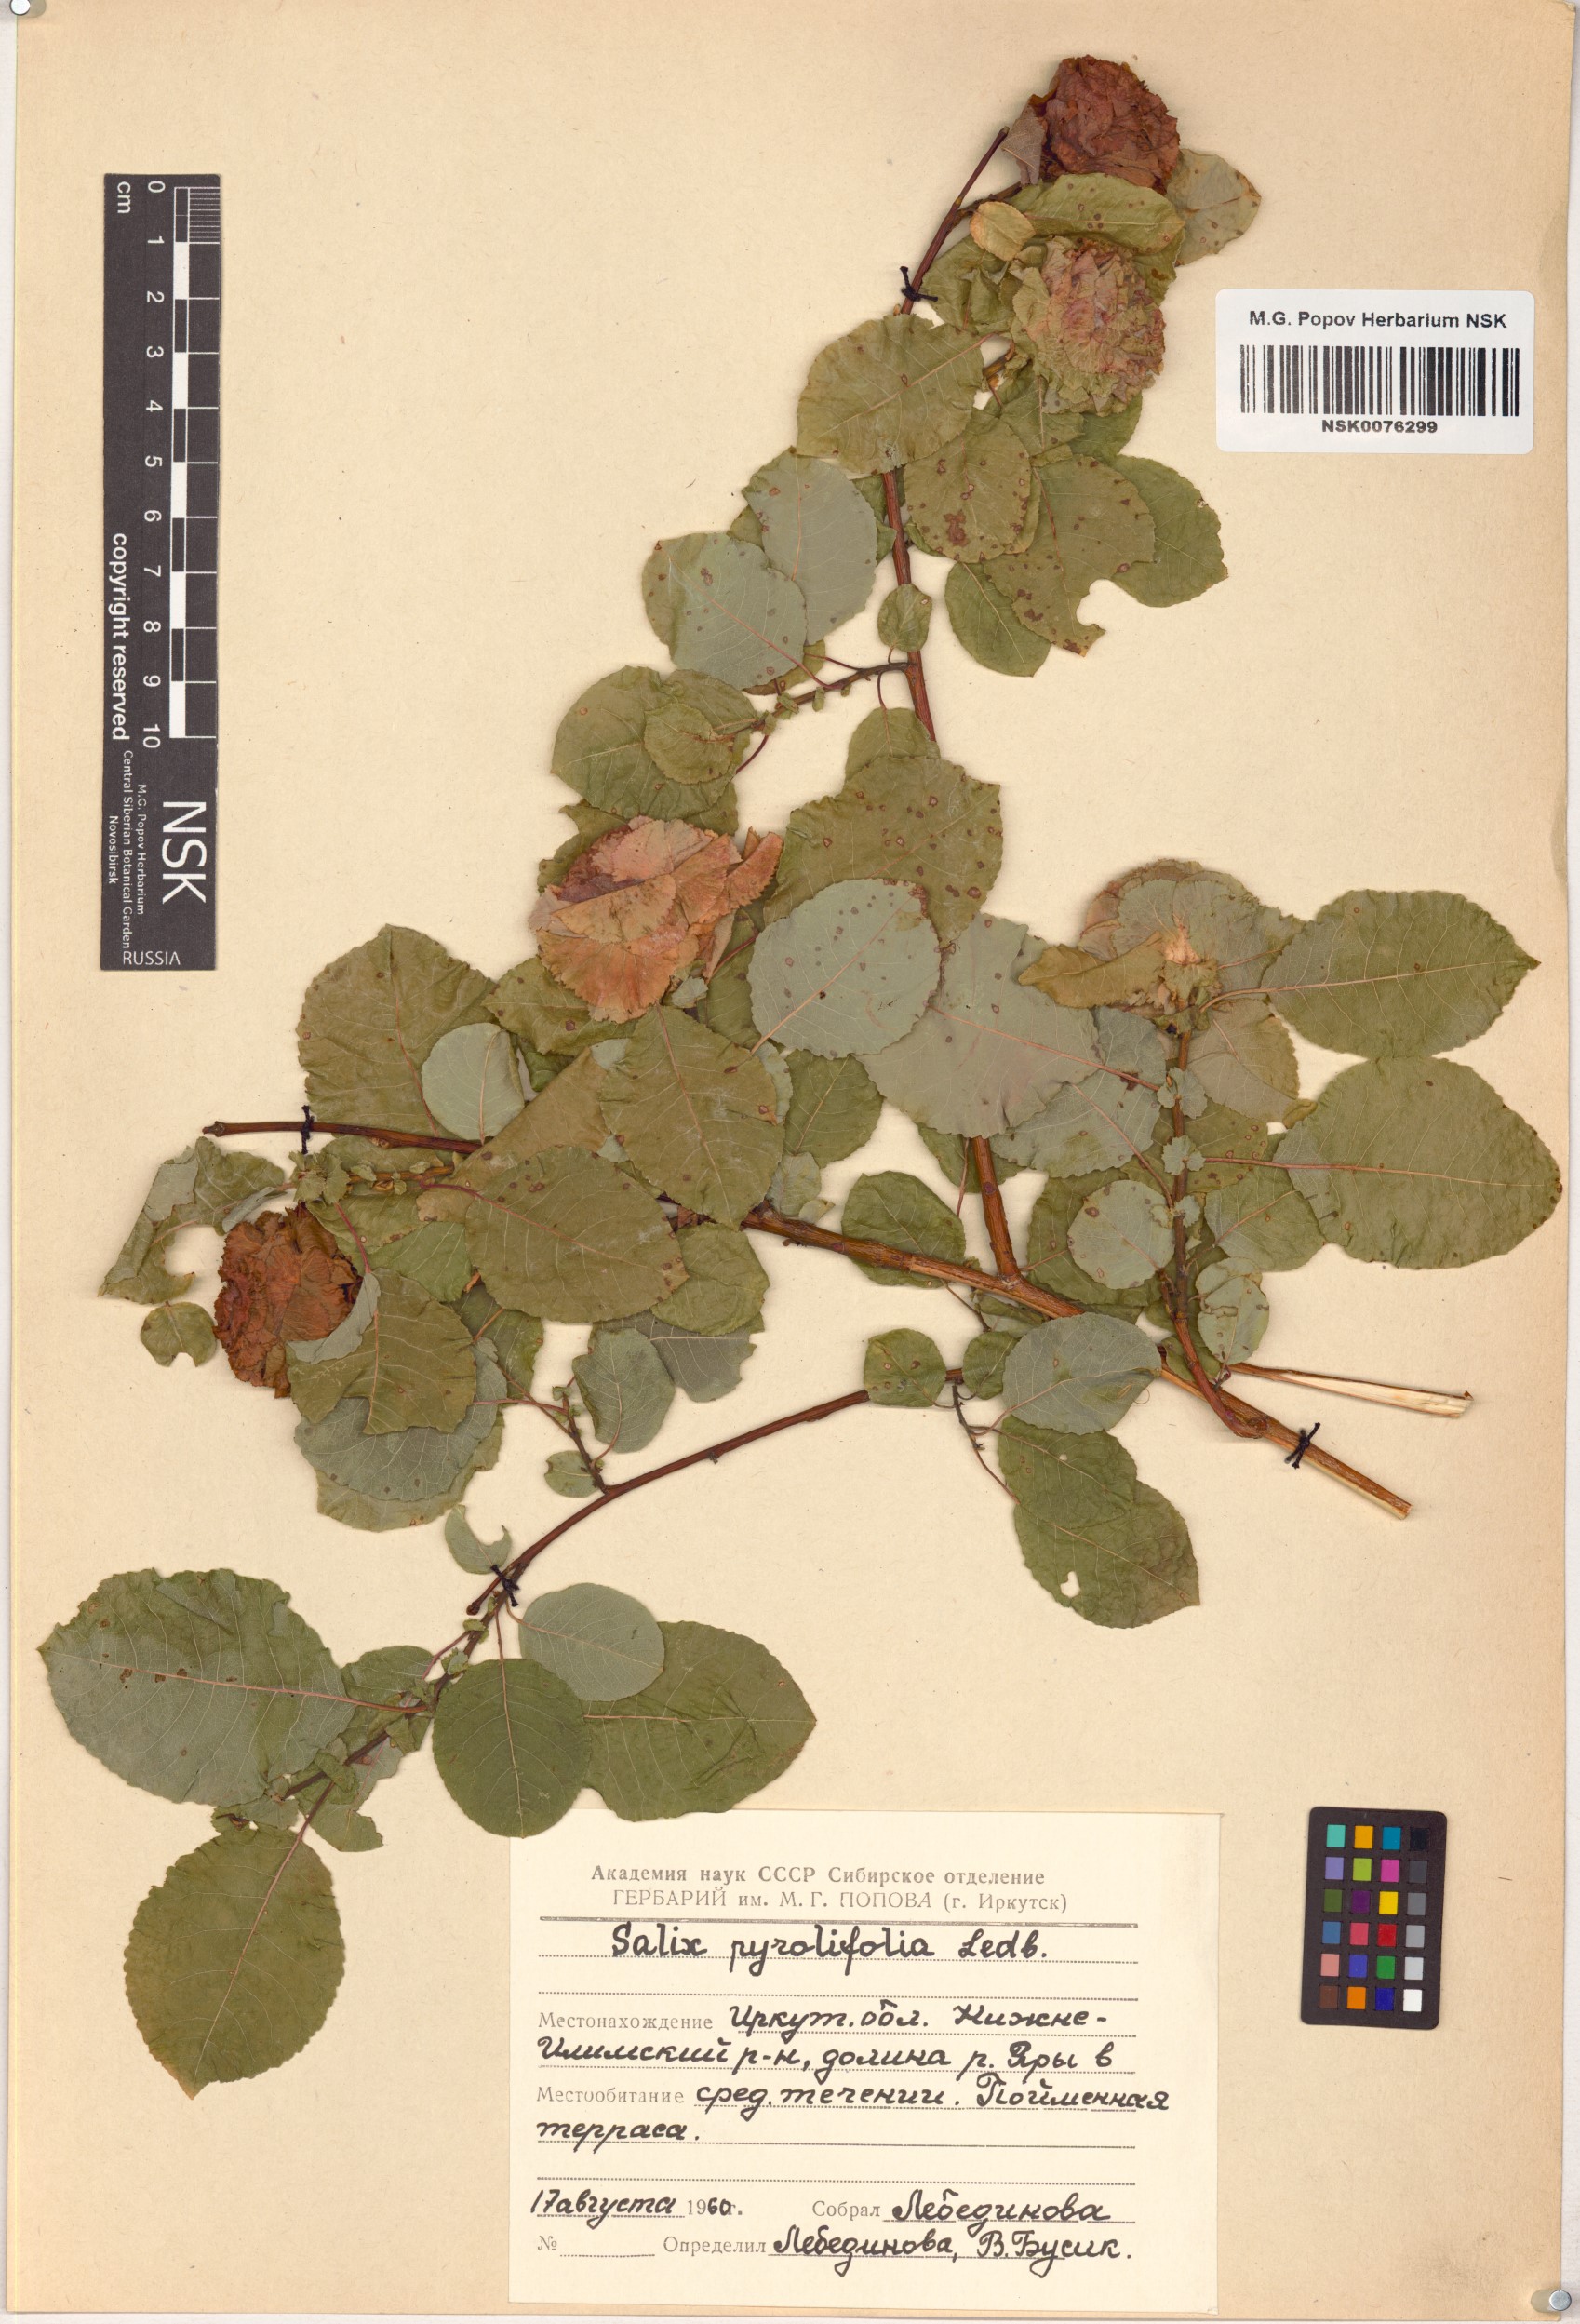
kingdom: Plantae
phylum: Tracheophyta
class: Magnoliopsida
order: Malpighiales
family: Salicaceae
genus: Salix
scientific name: Salix pyrolifolia
